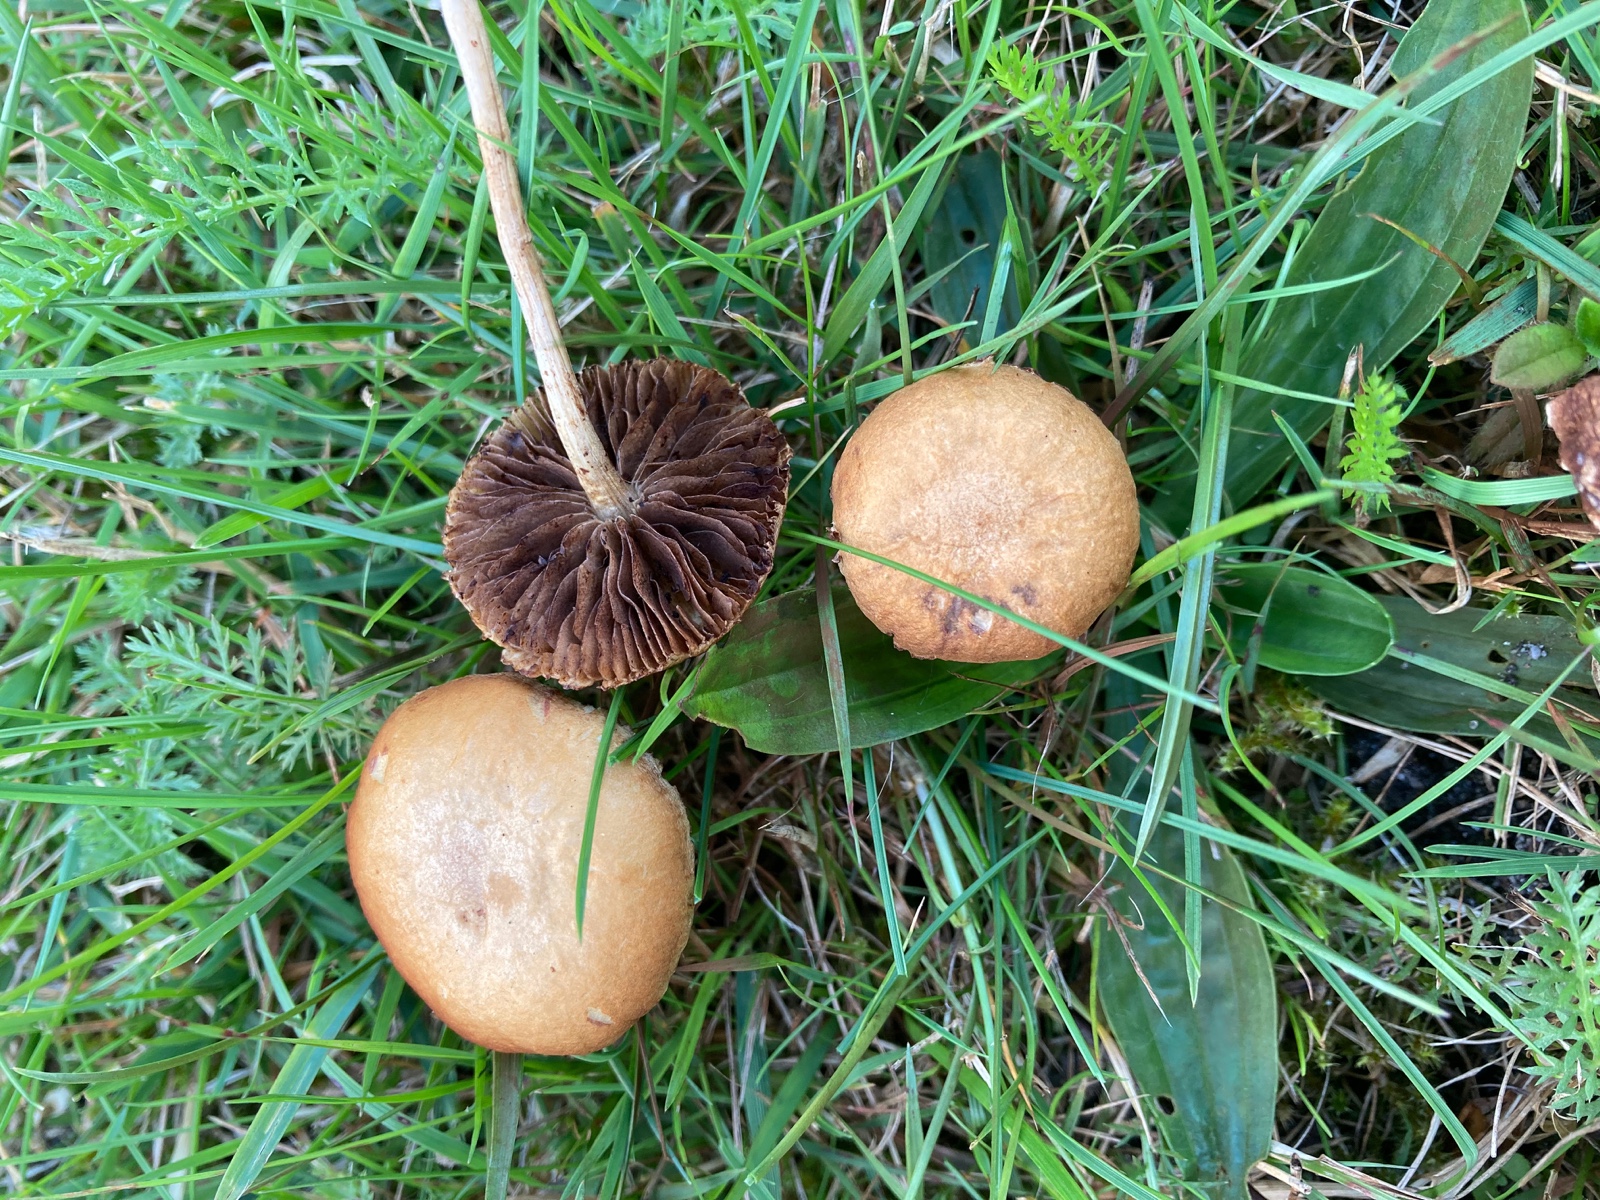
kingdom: Fungi
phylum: Basidiomycota
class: Agaricomycetes
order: Agaricales
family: Strophariaceae
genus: Agrocybe
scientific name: Agrocybe pediades
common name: almindelig agerhat
